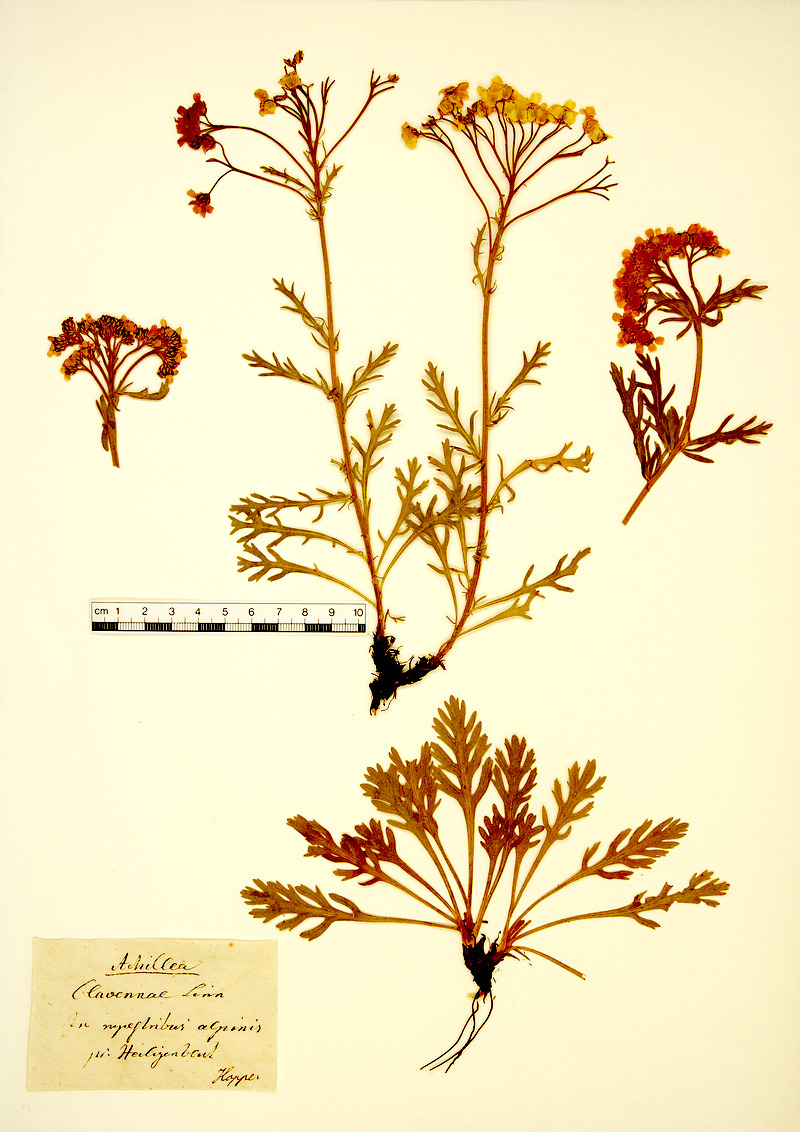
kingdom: Plantae
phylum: Tracheophyta
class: Magnoliopsida
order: Asterales
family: Asteraceae
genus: Achillea
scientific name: Achillea clavennae
